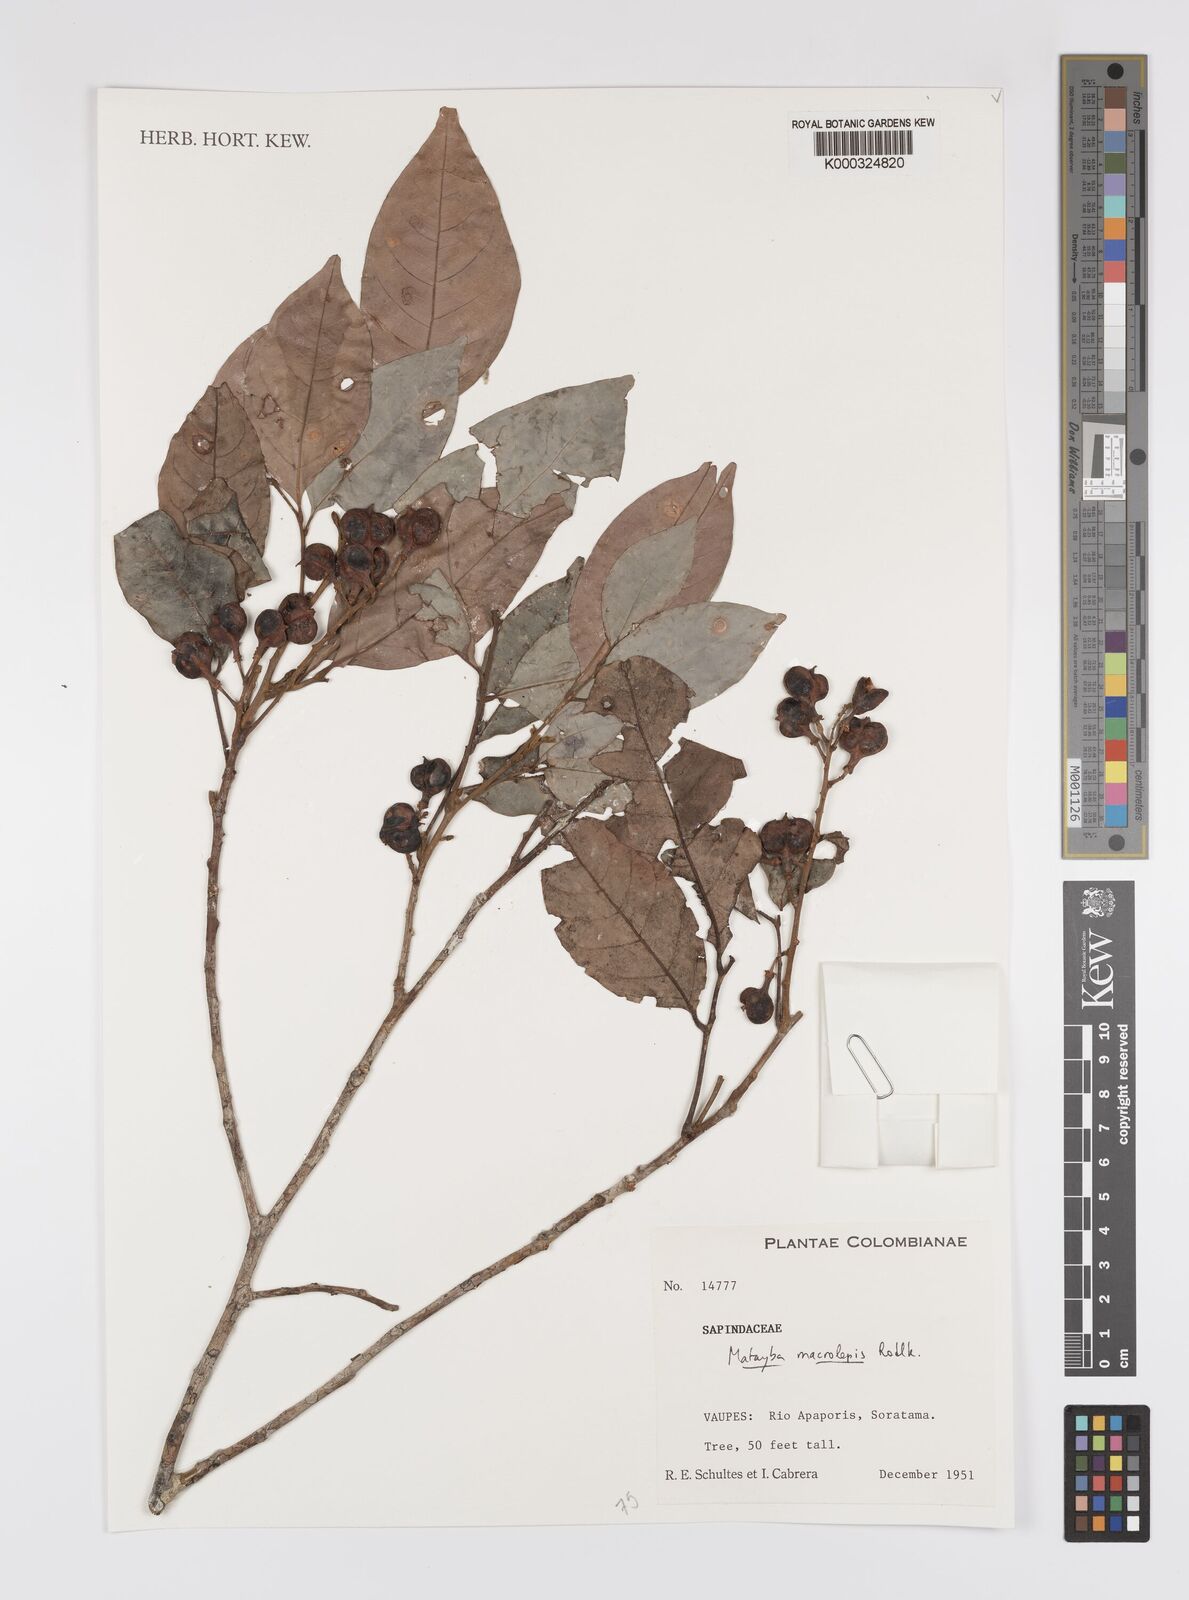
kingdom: Plantae
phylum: Tracheophyta
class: Magnoliopsida
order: Sapindales
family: Sapindaceae
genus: Cupania
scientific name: Cupania macrostylis
